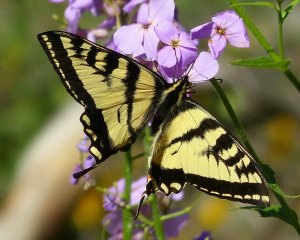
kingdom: Animalia
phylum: Arthropoda
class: Insecta
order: Lepidoptera
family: Papilionidae
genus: Pterourus
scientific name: Pterourus rutulus
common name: Western Tiger Swallowtail
